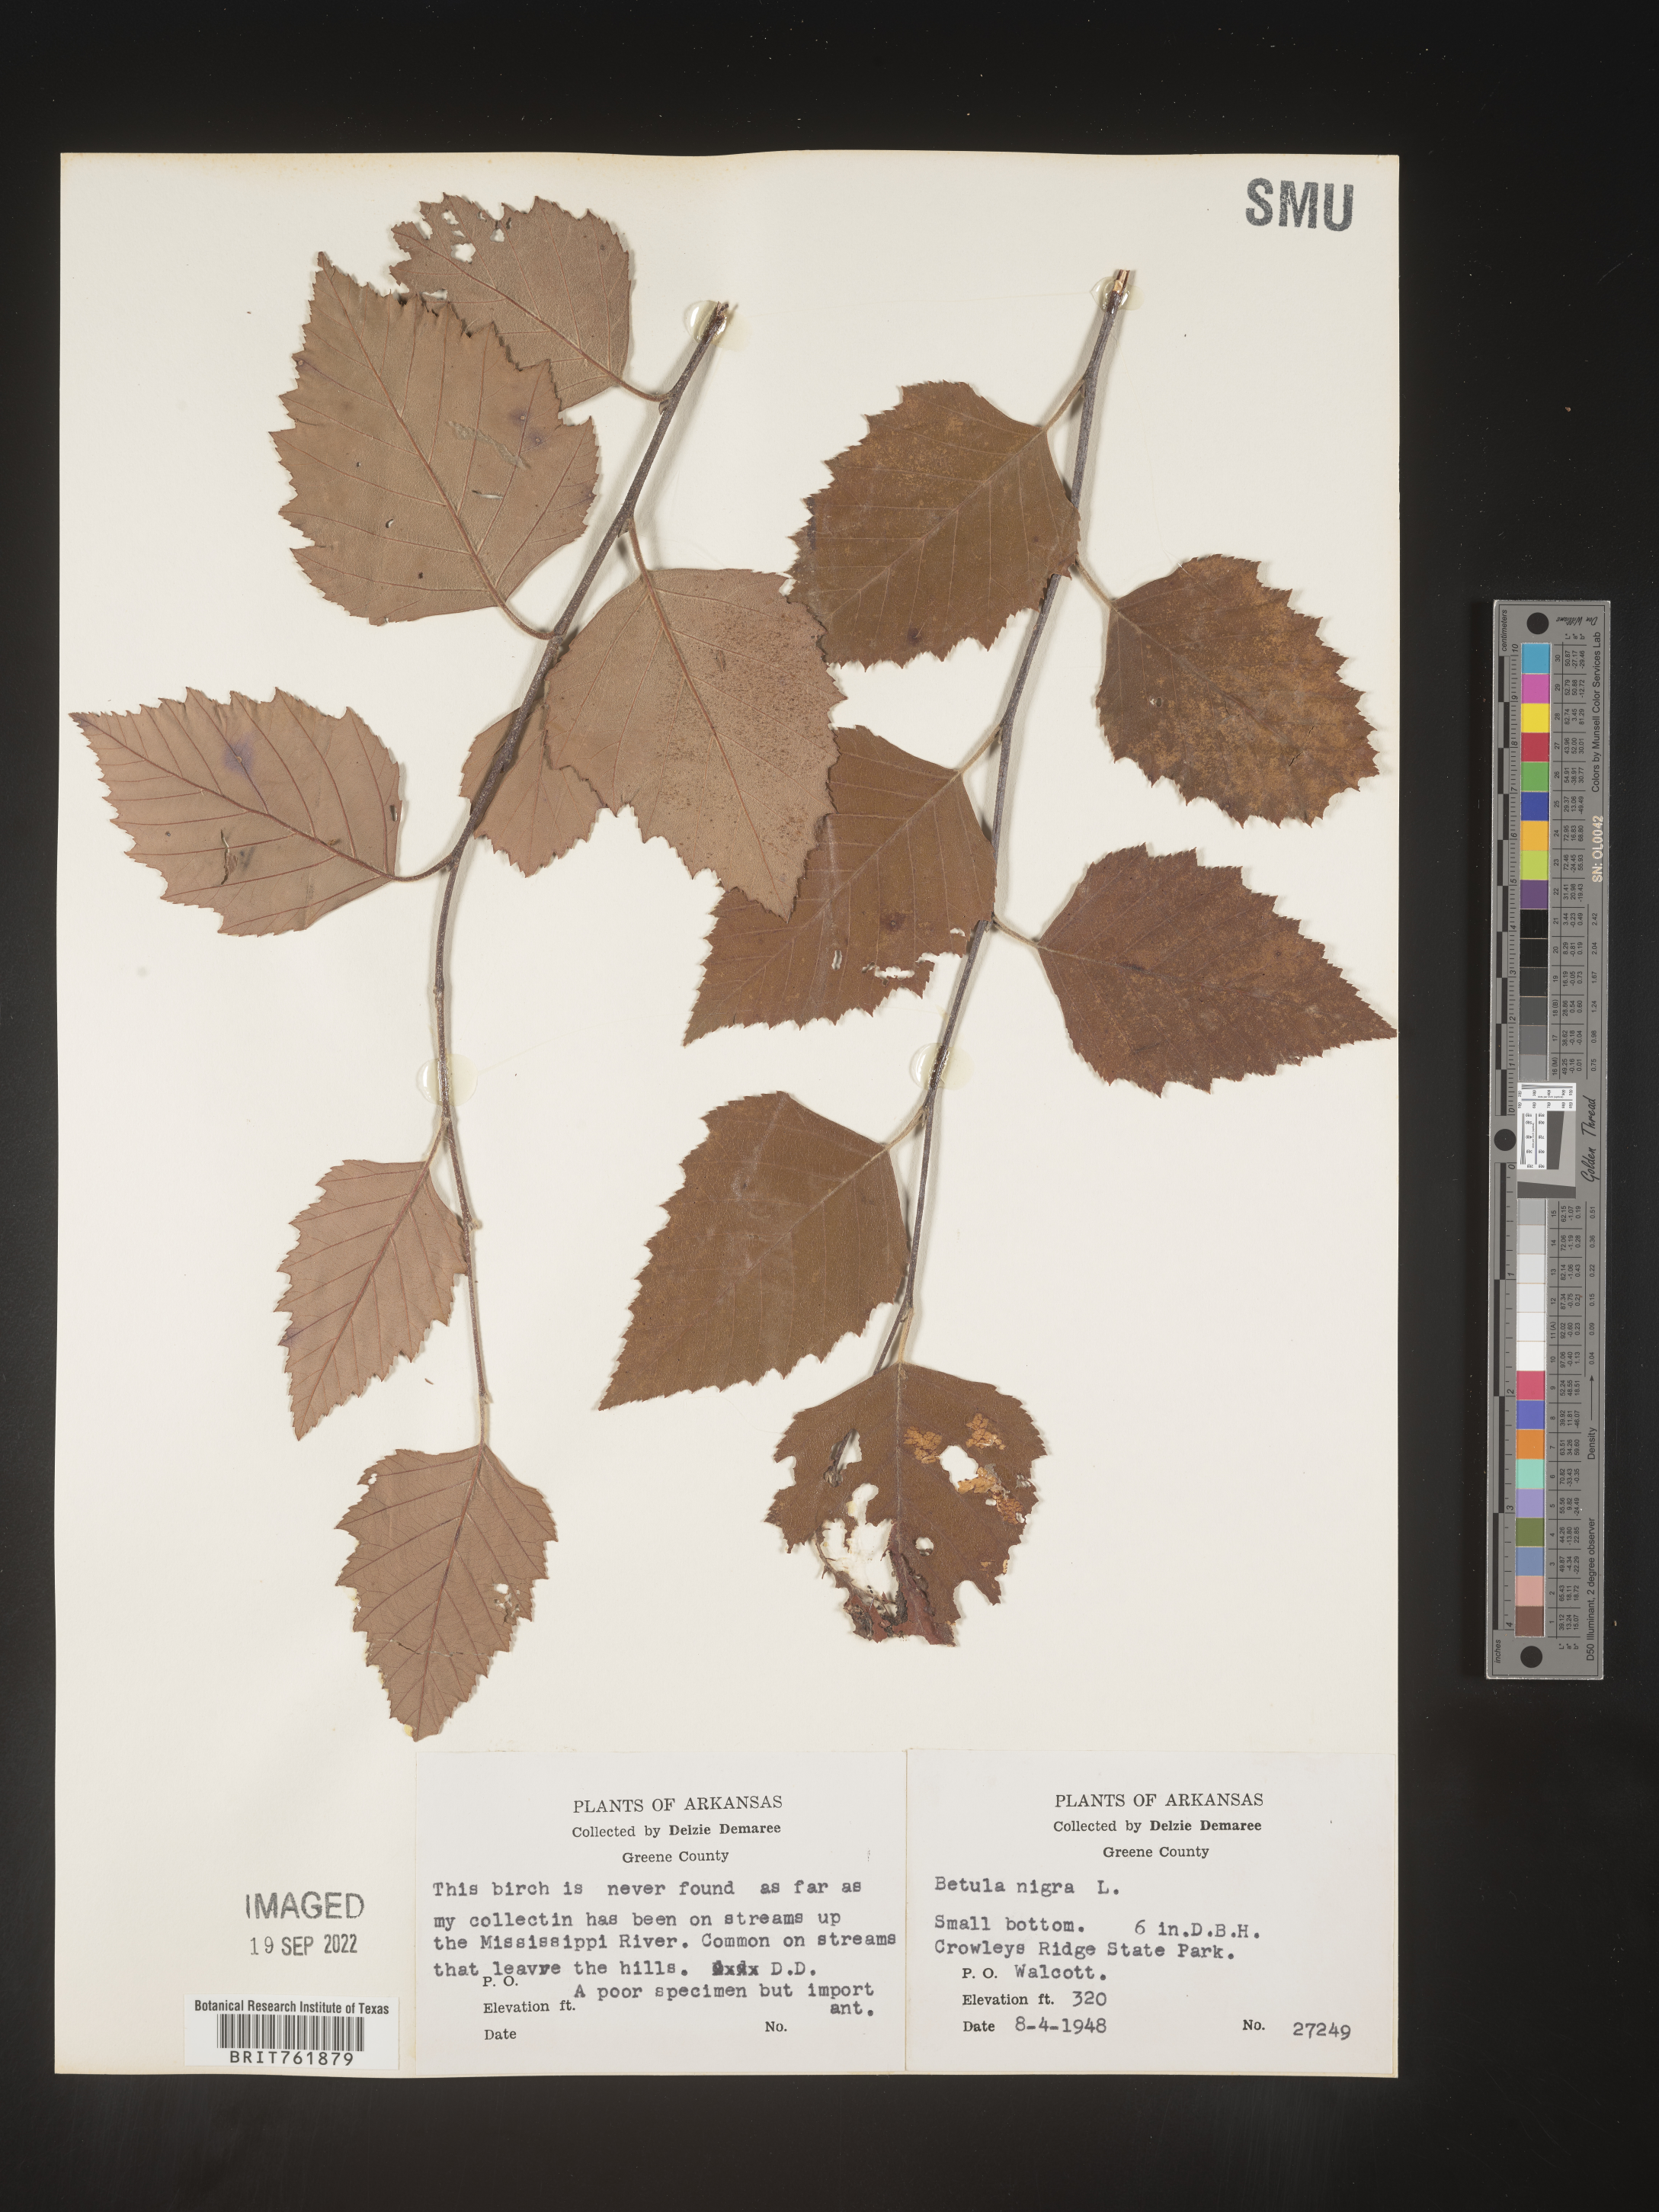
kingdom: Plantae
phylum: Tracheophyta
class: Magnoliopsida
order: Fagales
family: Betulaceae
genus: Betula
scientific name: Betula nigra
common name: Black birch
